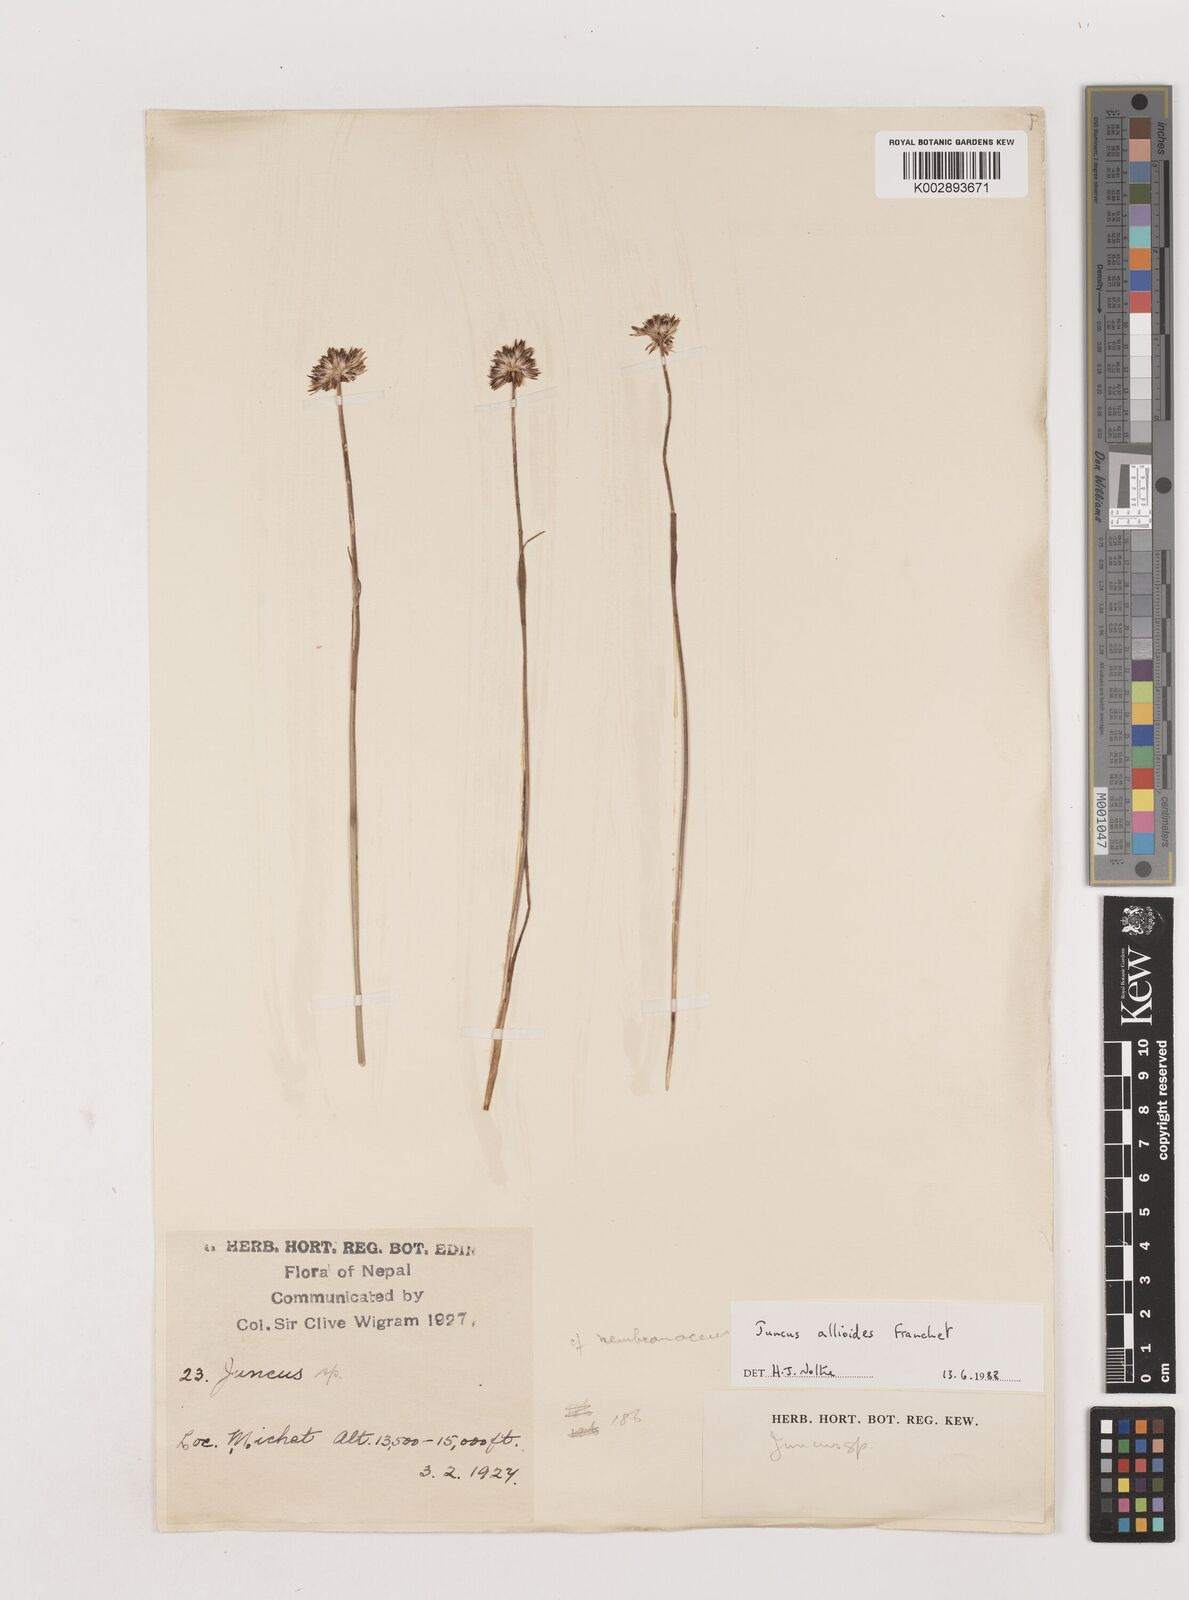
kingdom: Plantae
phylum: Tracheophyta
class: Liliopsida
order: Poales
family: Juncaceae
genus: Juncus
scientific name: Juncus allioides
